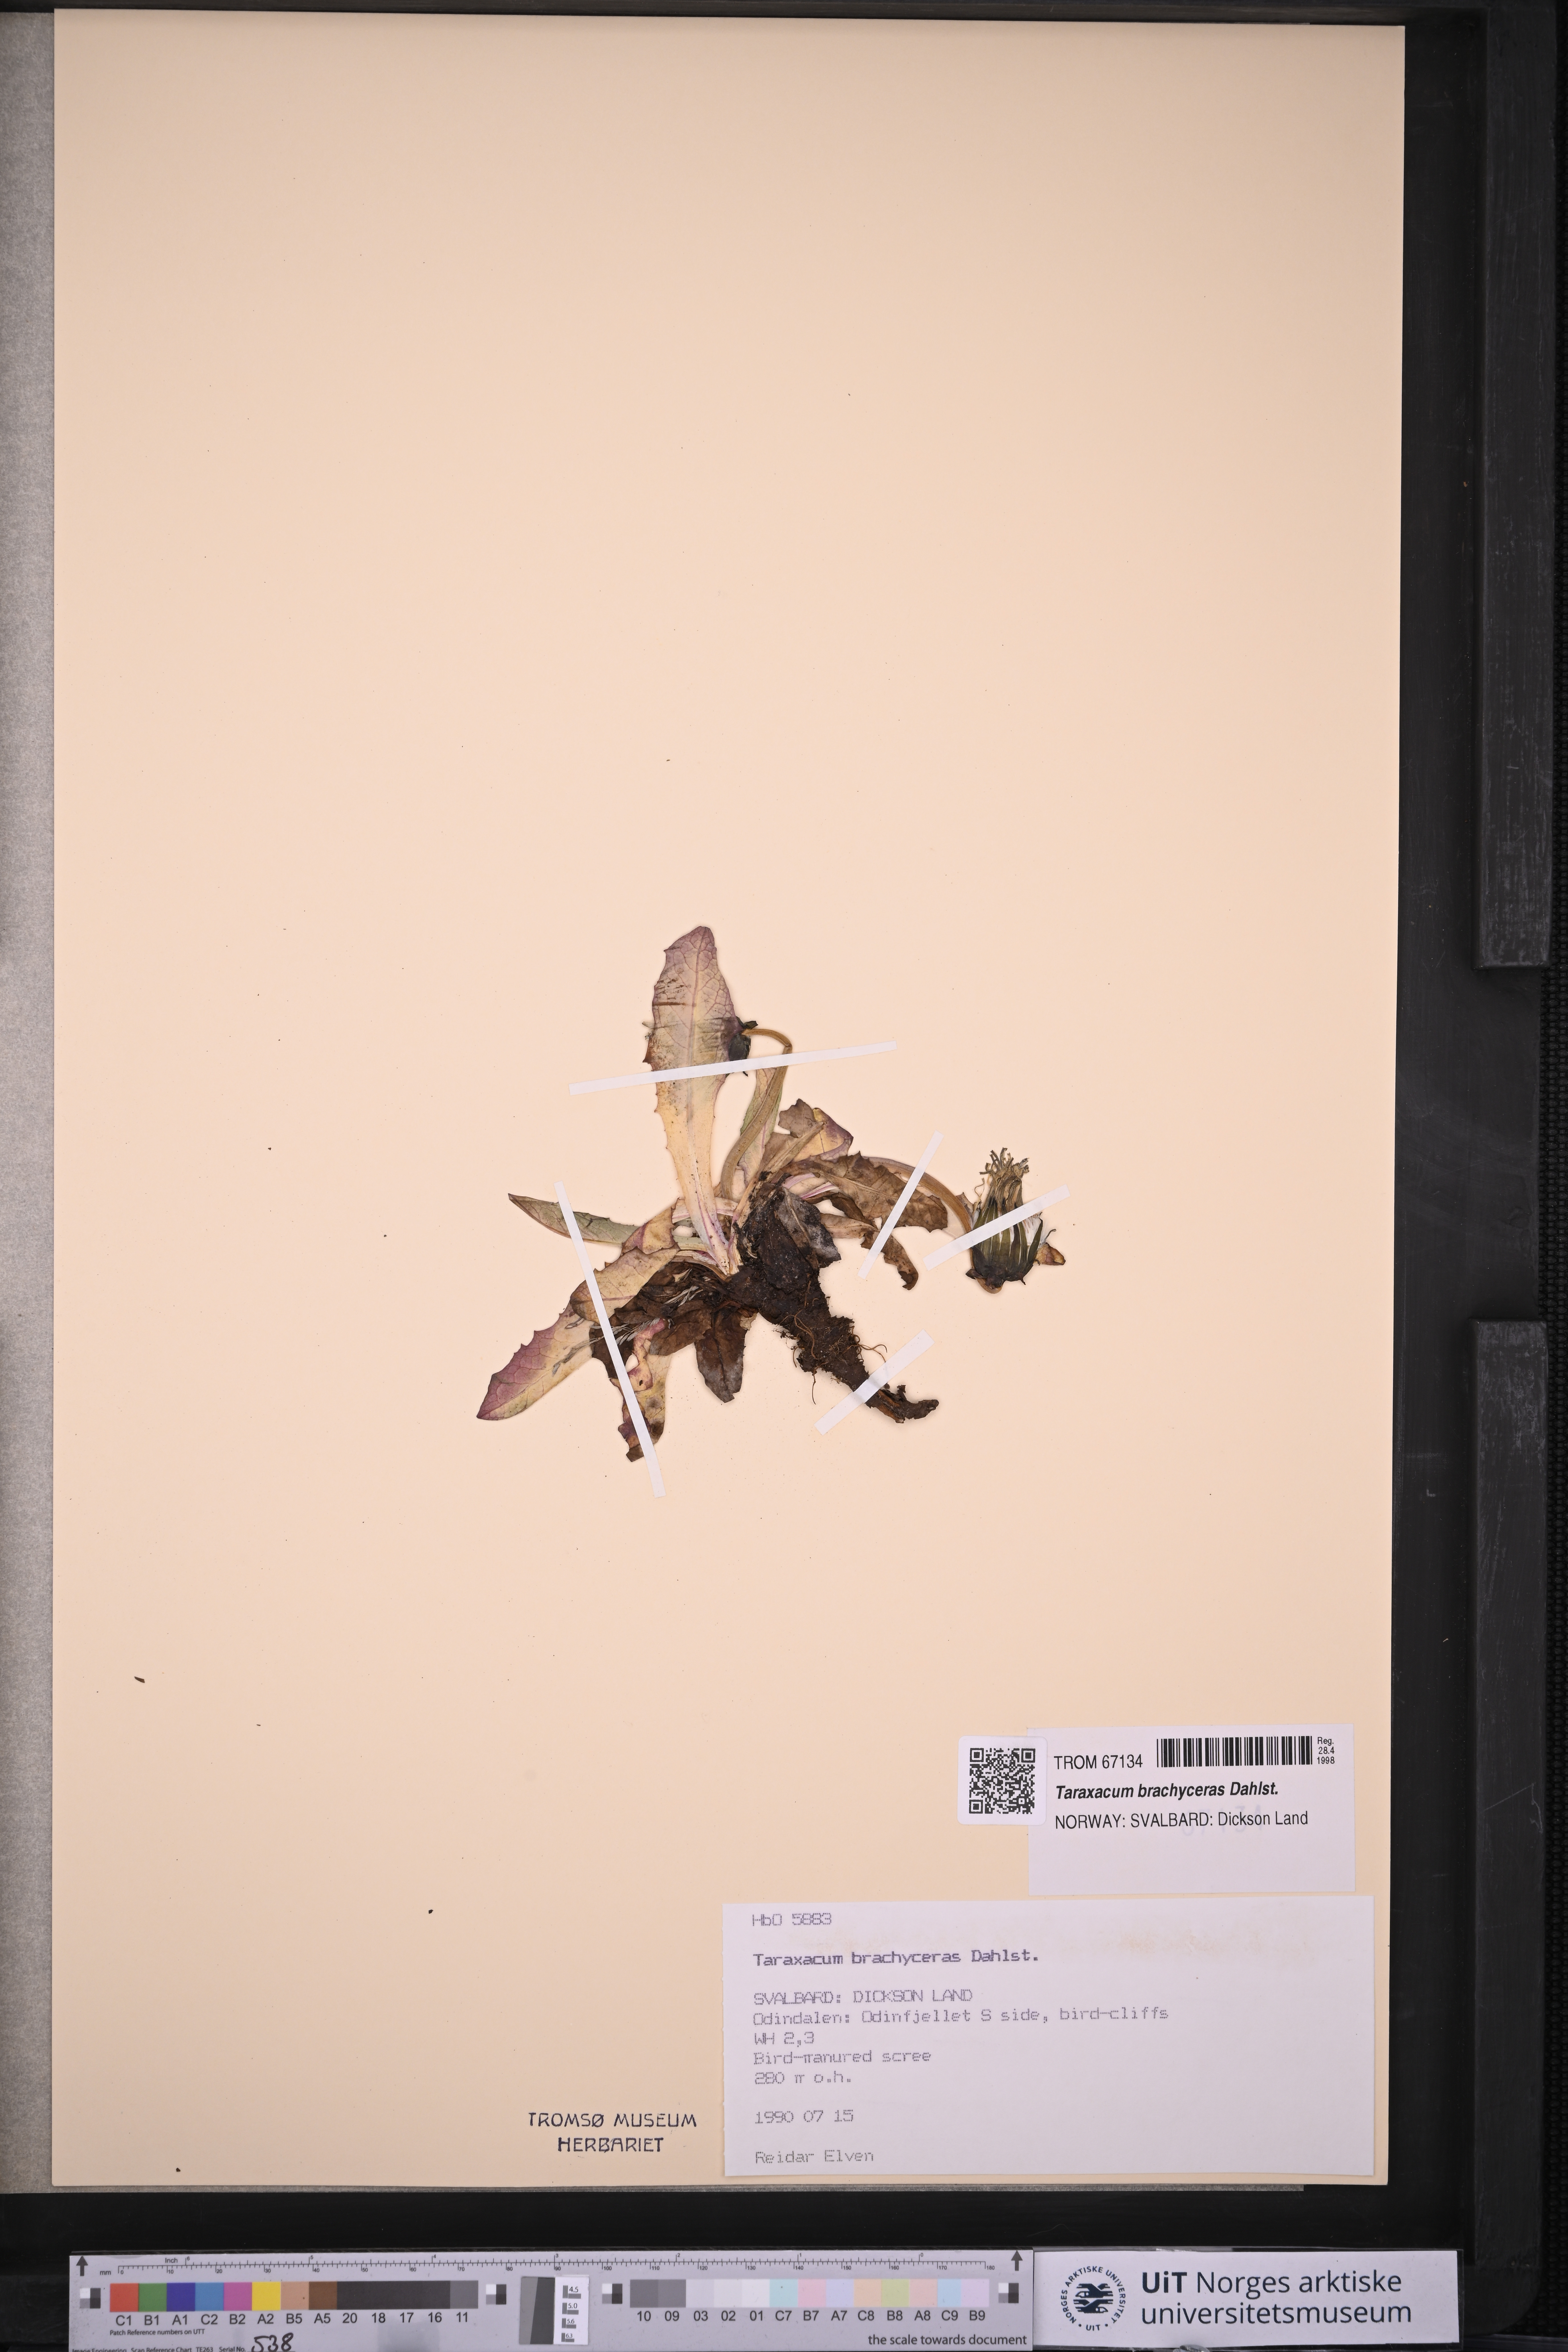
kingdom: Plantae
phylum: Tracheophyta
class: Magnoliopsida
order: Asterales
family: Asteraceae
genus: Taraxacum
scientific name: Taraxacum brachyceras
